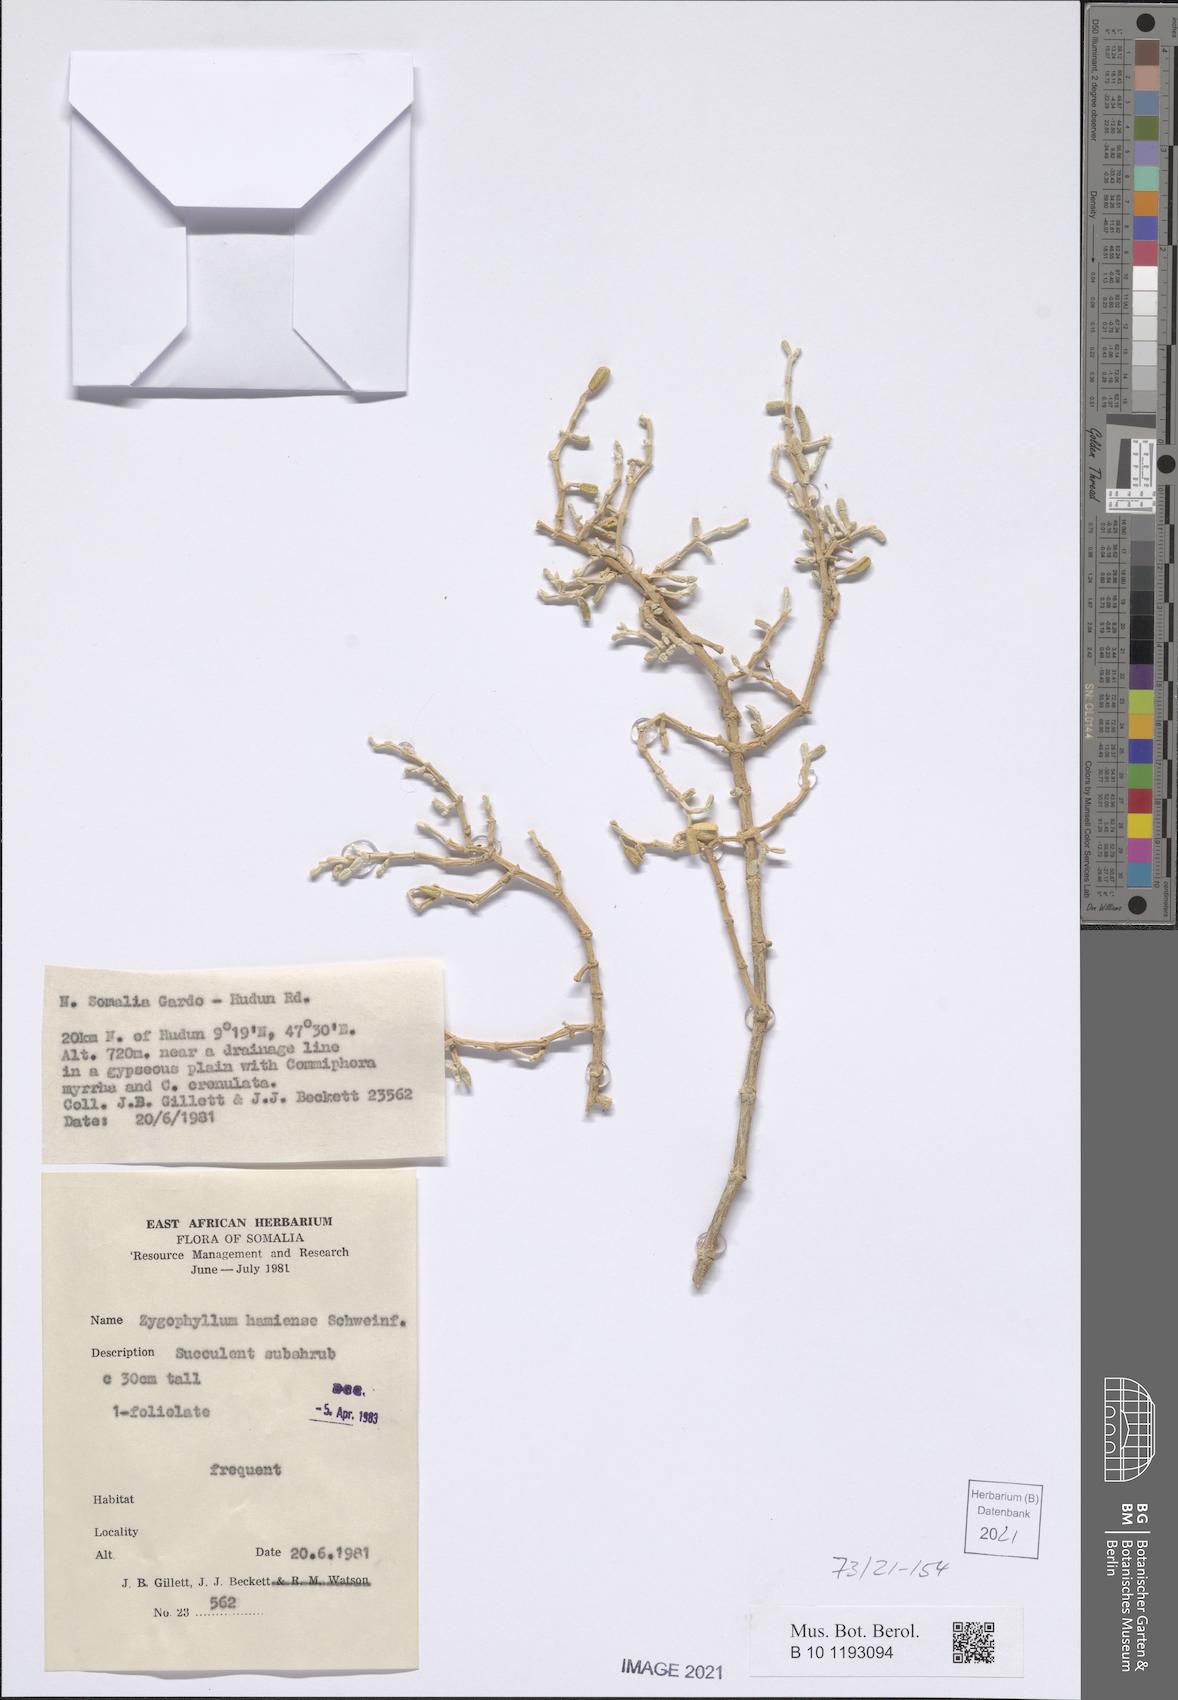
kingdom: Plantae
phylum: Tracheophyta
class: Magnoliopsida
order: Zygophyllales
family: Zygophyllaceae
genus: Tetraena
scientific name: Tetraena hamiensis
